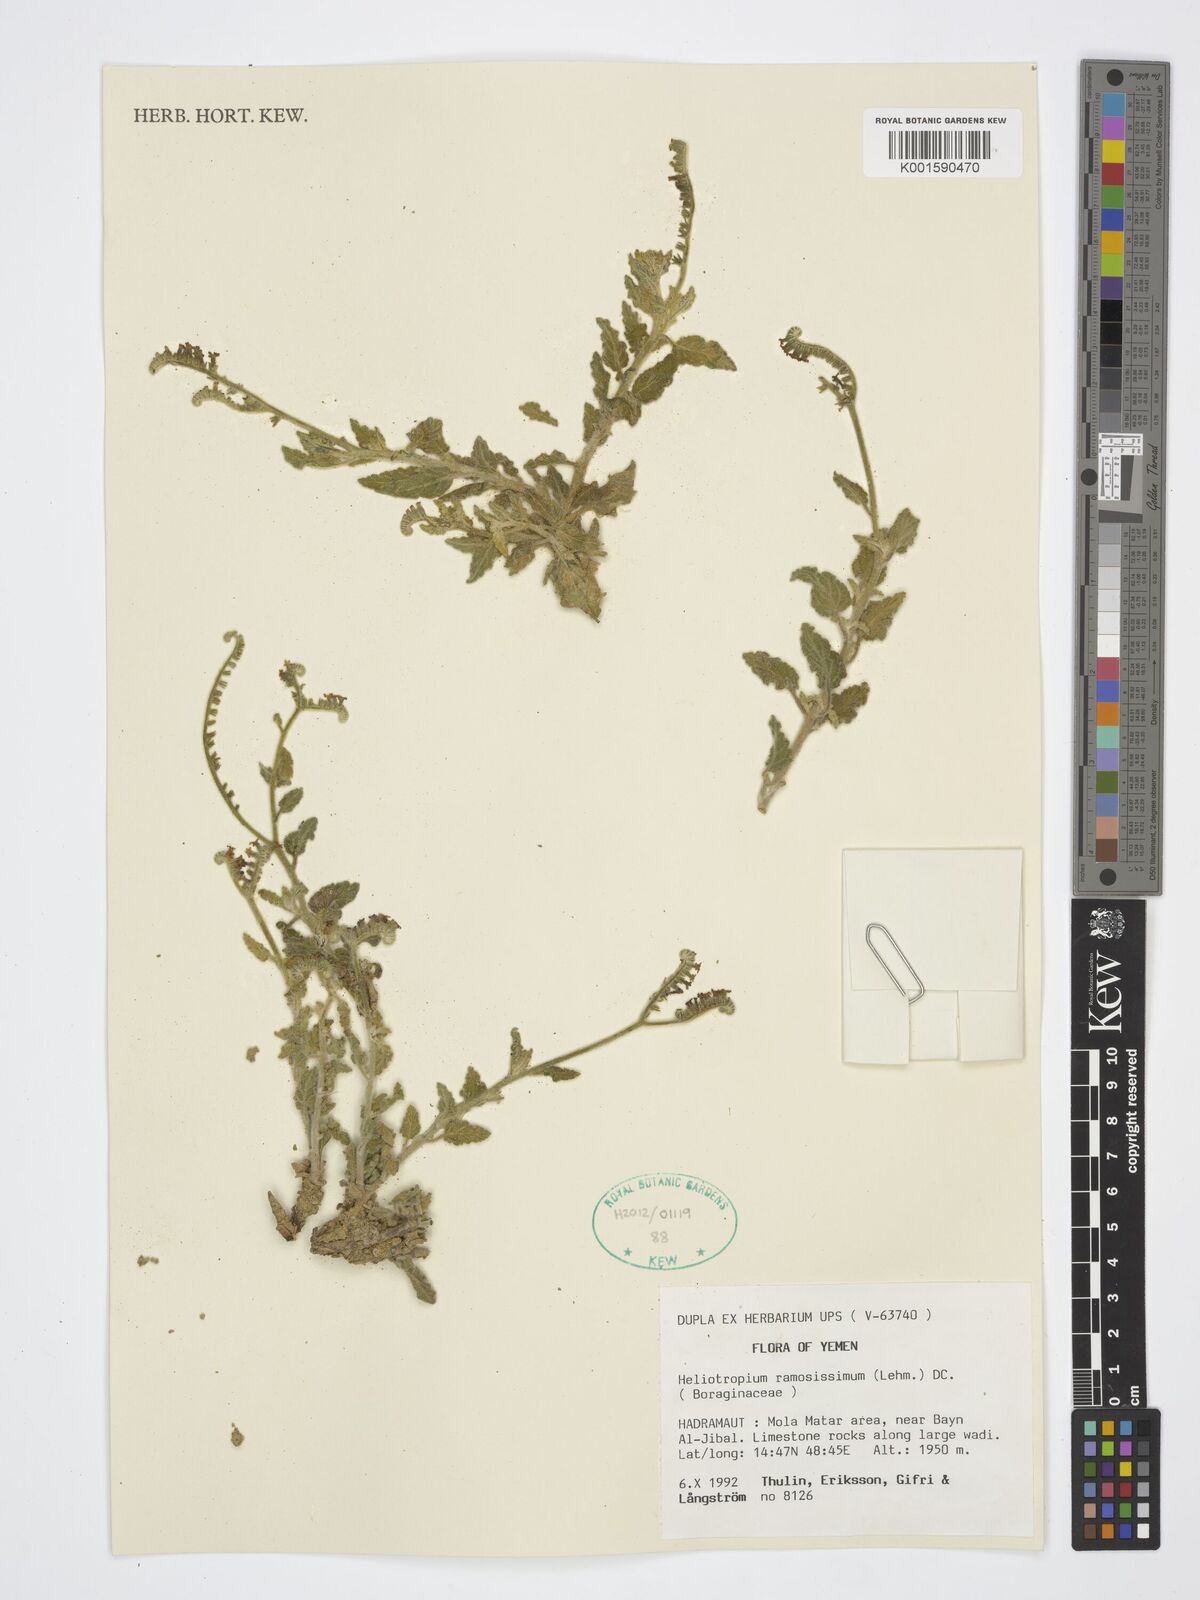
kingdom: Plantae
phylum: Tracheophyta
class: Magnoliopsida
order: Boraginales
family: Heliotropiaceae
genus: Heliotropium
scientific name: Heliotropium ramosissimum
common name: Wavy heliotrope
